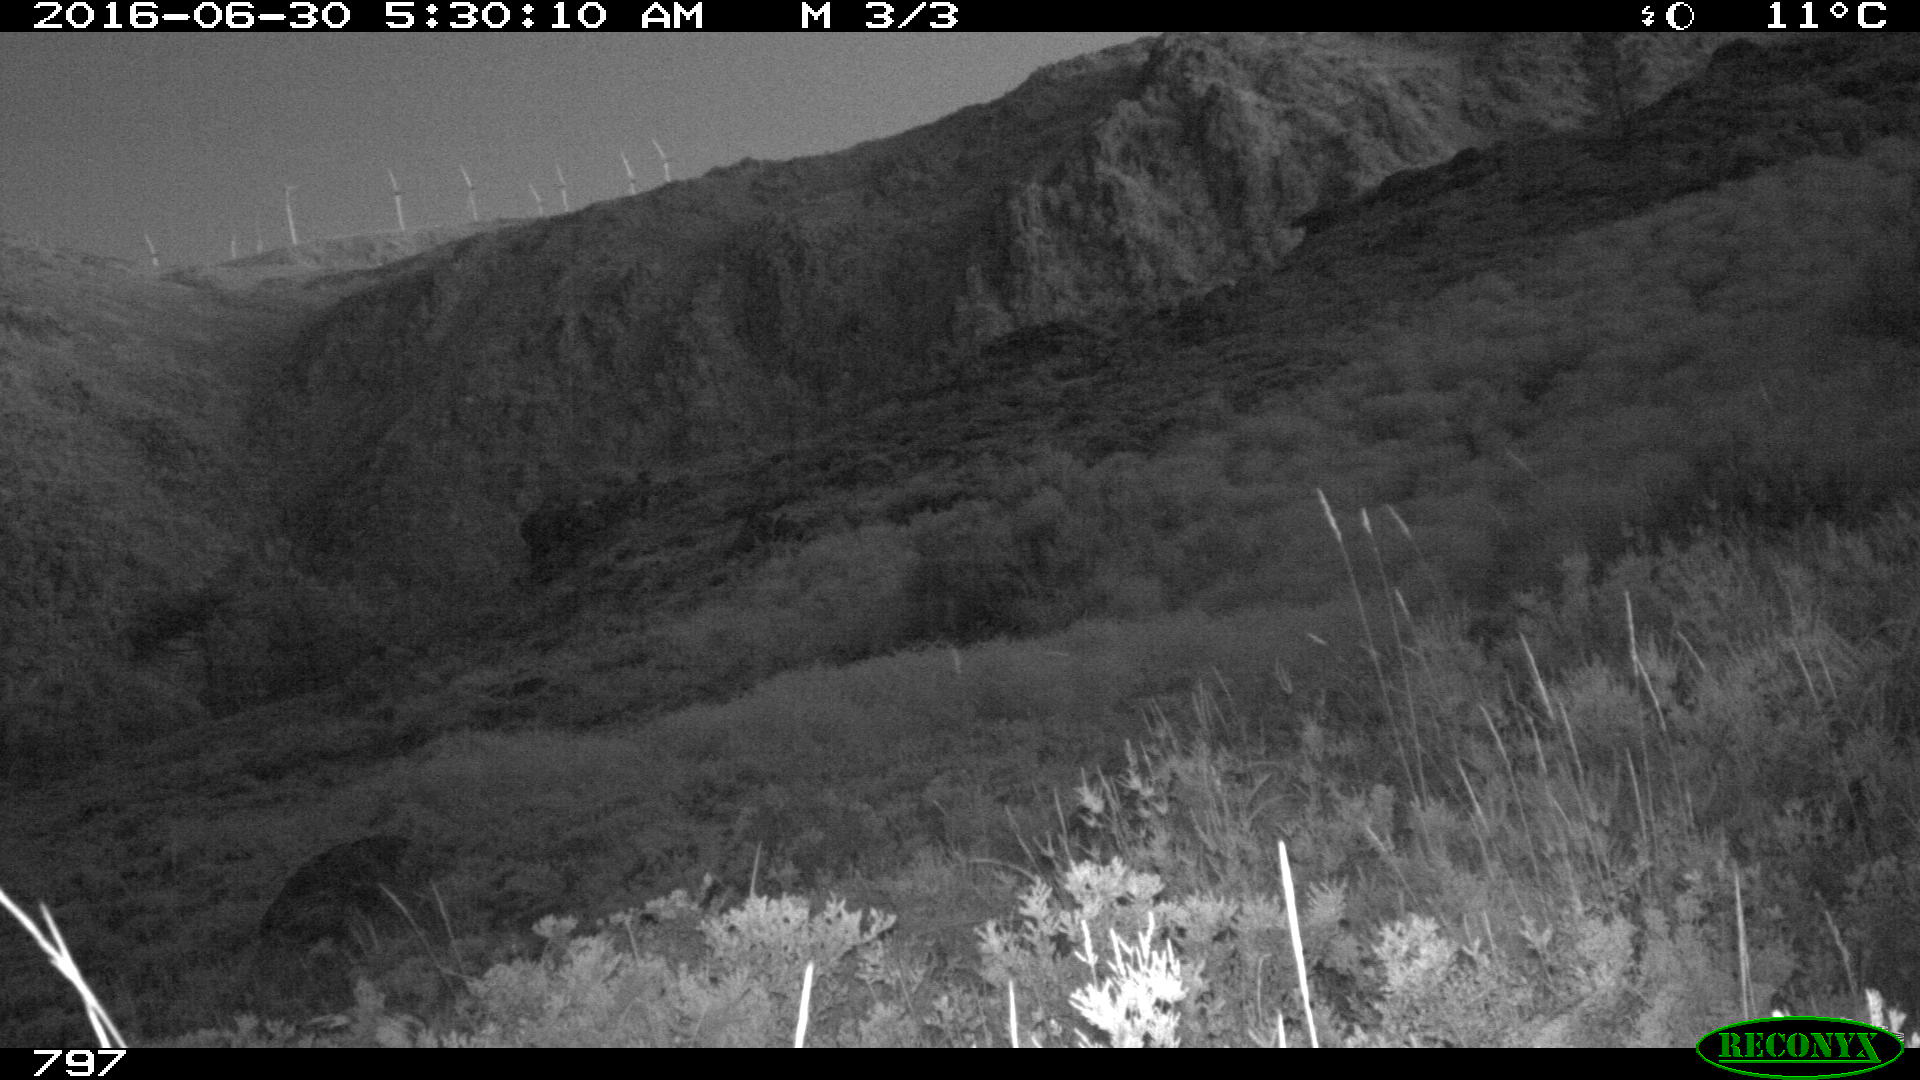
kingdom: Animalia
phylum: Chordata
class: Mammalia
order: Artiodactyla
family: Cervidae
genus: Capreolus
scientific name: Capreolus capreolus
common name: Western roe deer
